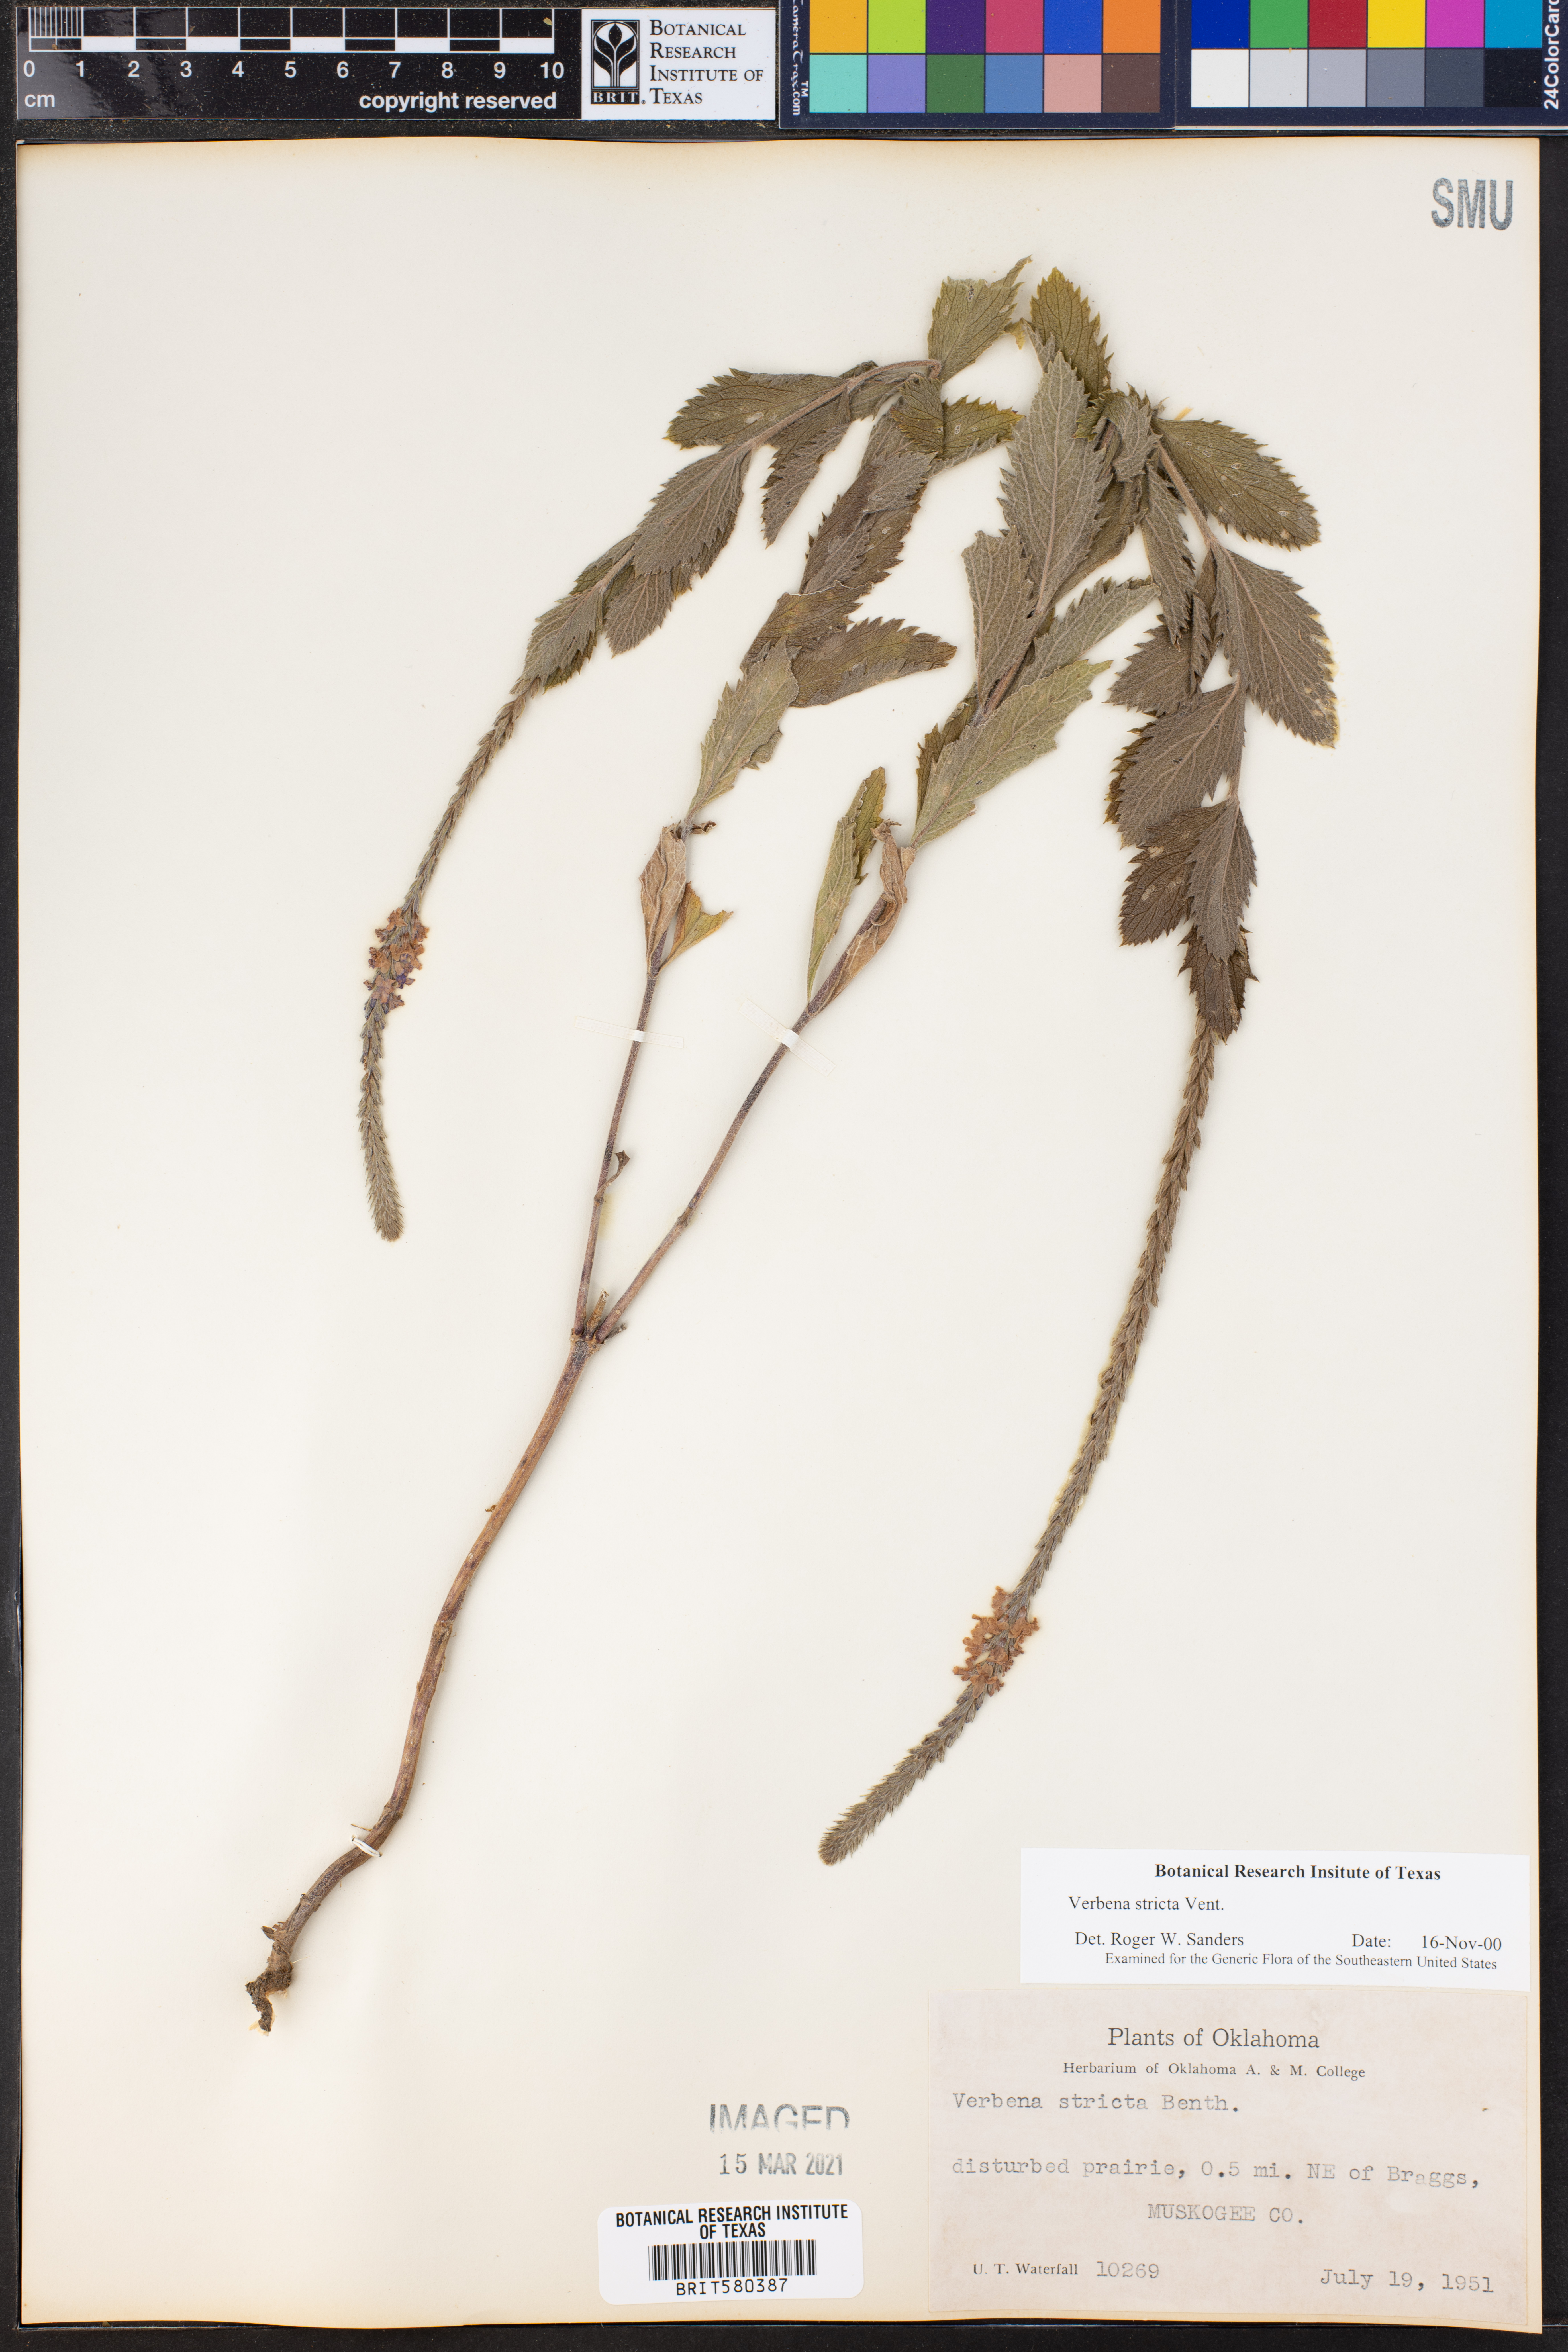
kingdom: Plantae
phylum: Tracheophyta
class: Magnoliopsida
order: Lamiales
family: Verbenaceae
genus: Verbena
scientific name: Verbena stricta
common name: Hoary vervain
